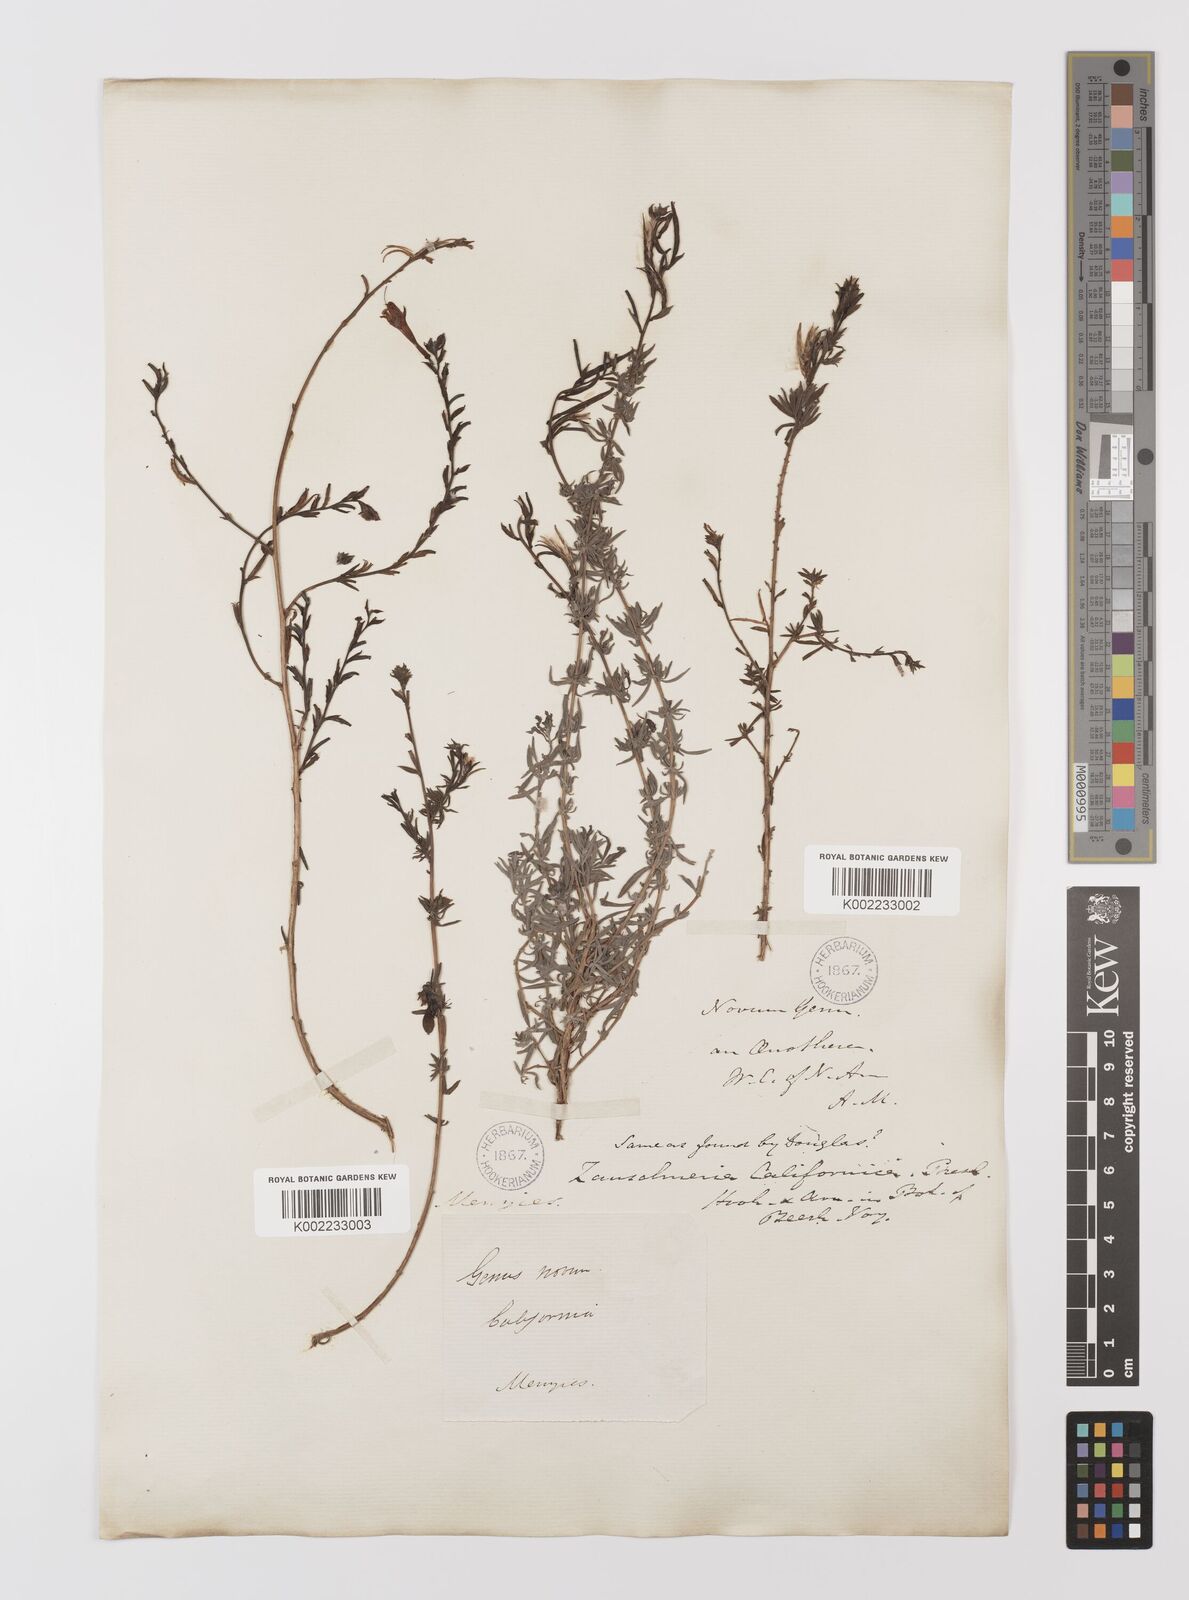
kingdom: Plantae
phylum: Tracheophyta
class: Magnoliopsida
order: Myrtales
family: Onagraceae
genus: Epilobium
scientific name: Epilobium canum
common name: California-fuchsia
